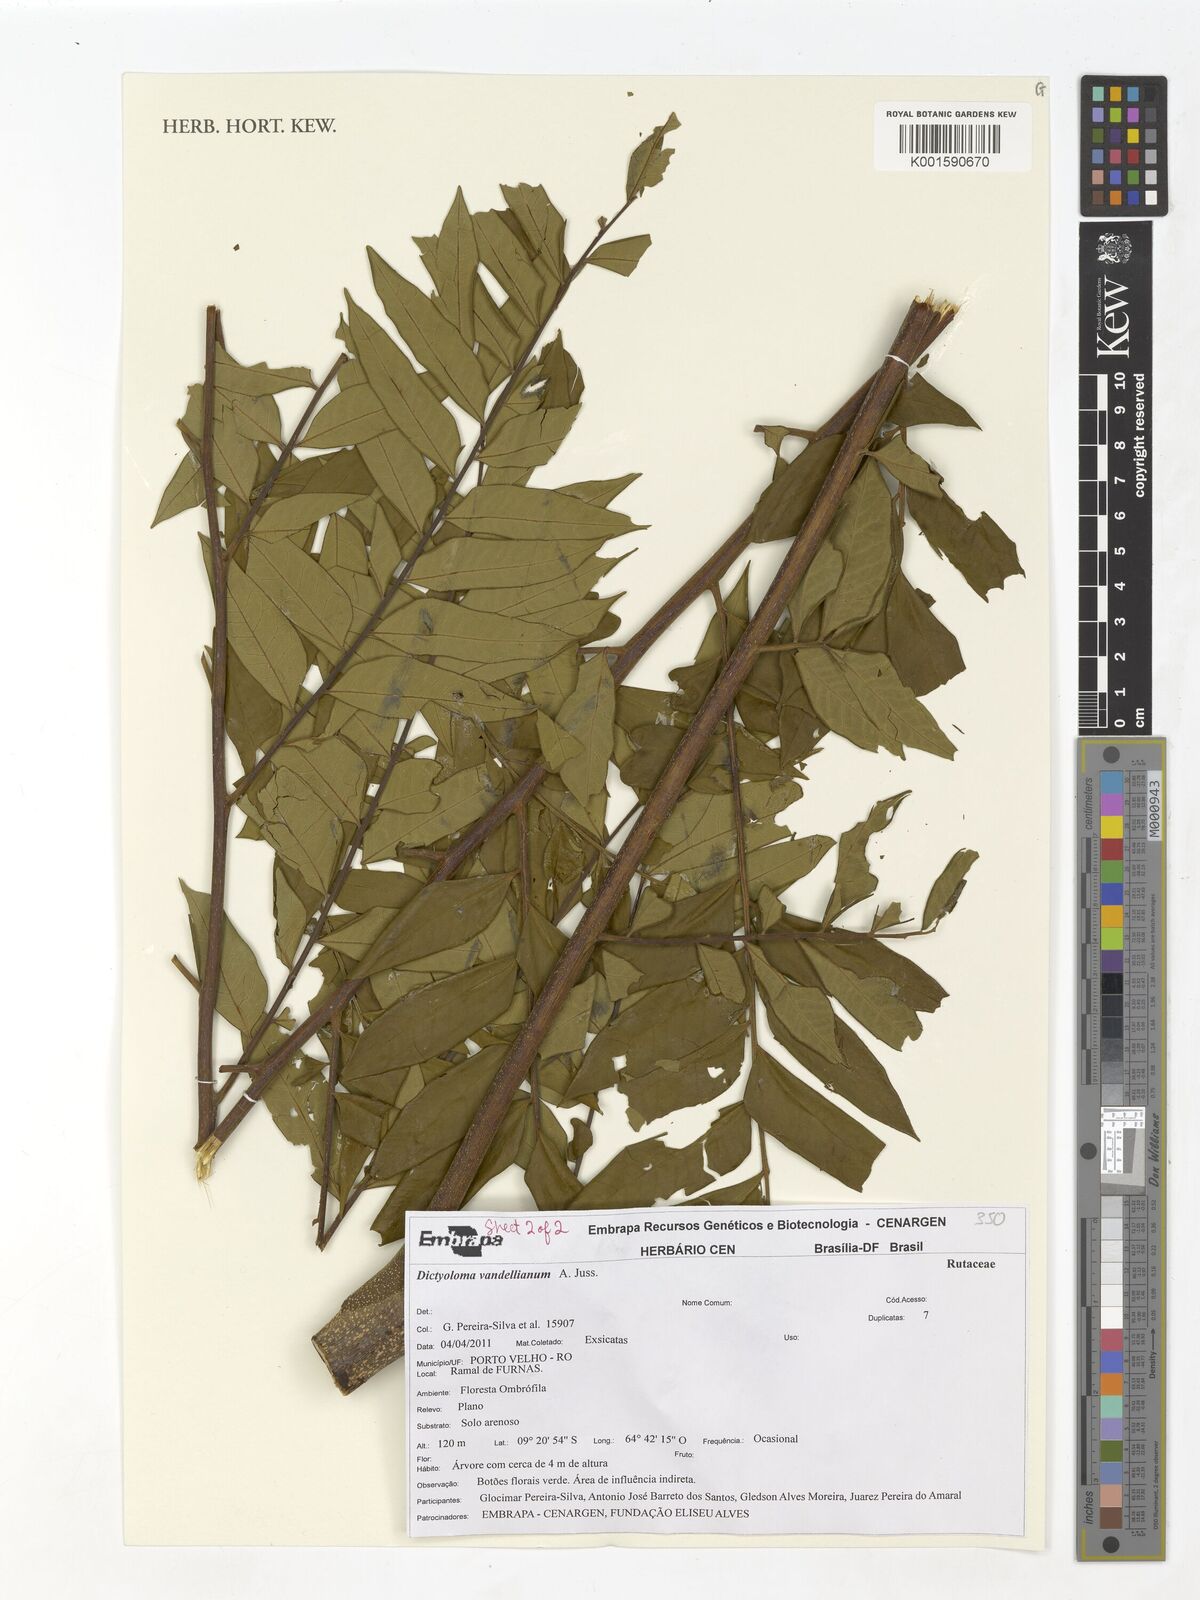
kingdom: Plantae
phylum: Tracheophyta
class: Magnoliopsida
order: Sapindales
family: Rutaceae
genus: Dictyoloma
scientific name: Dictyoloma vandellianum
